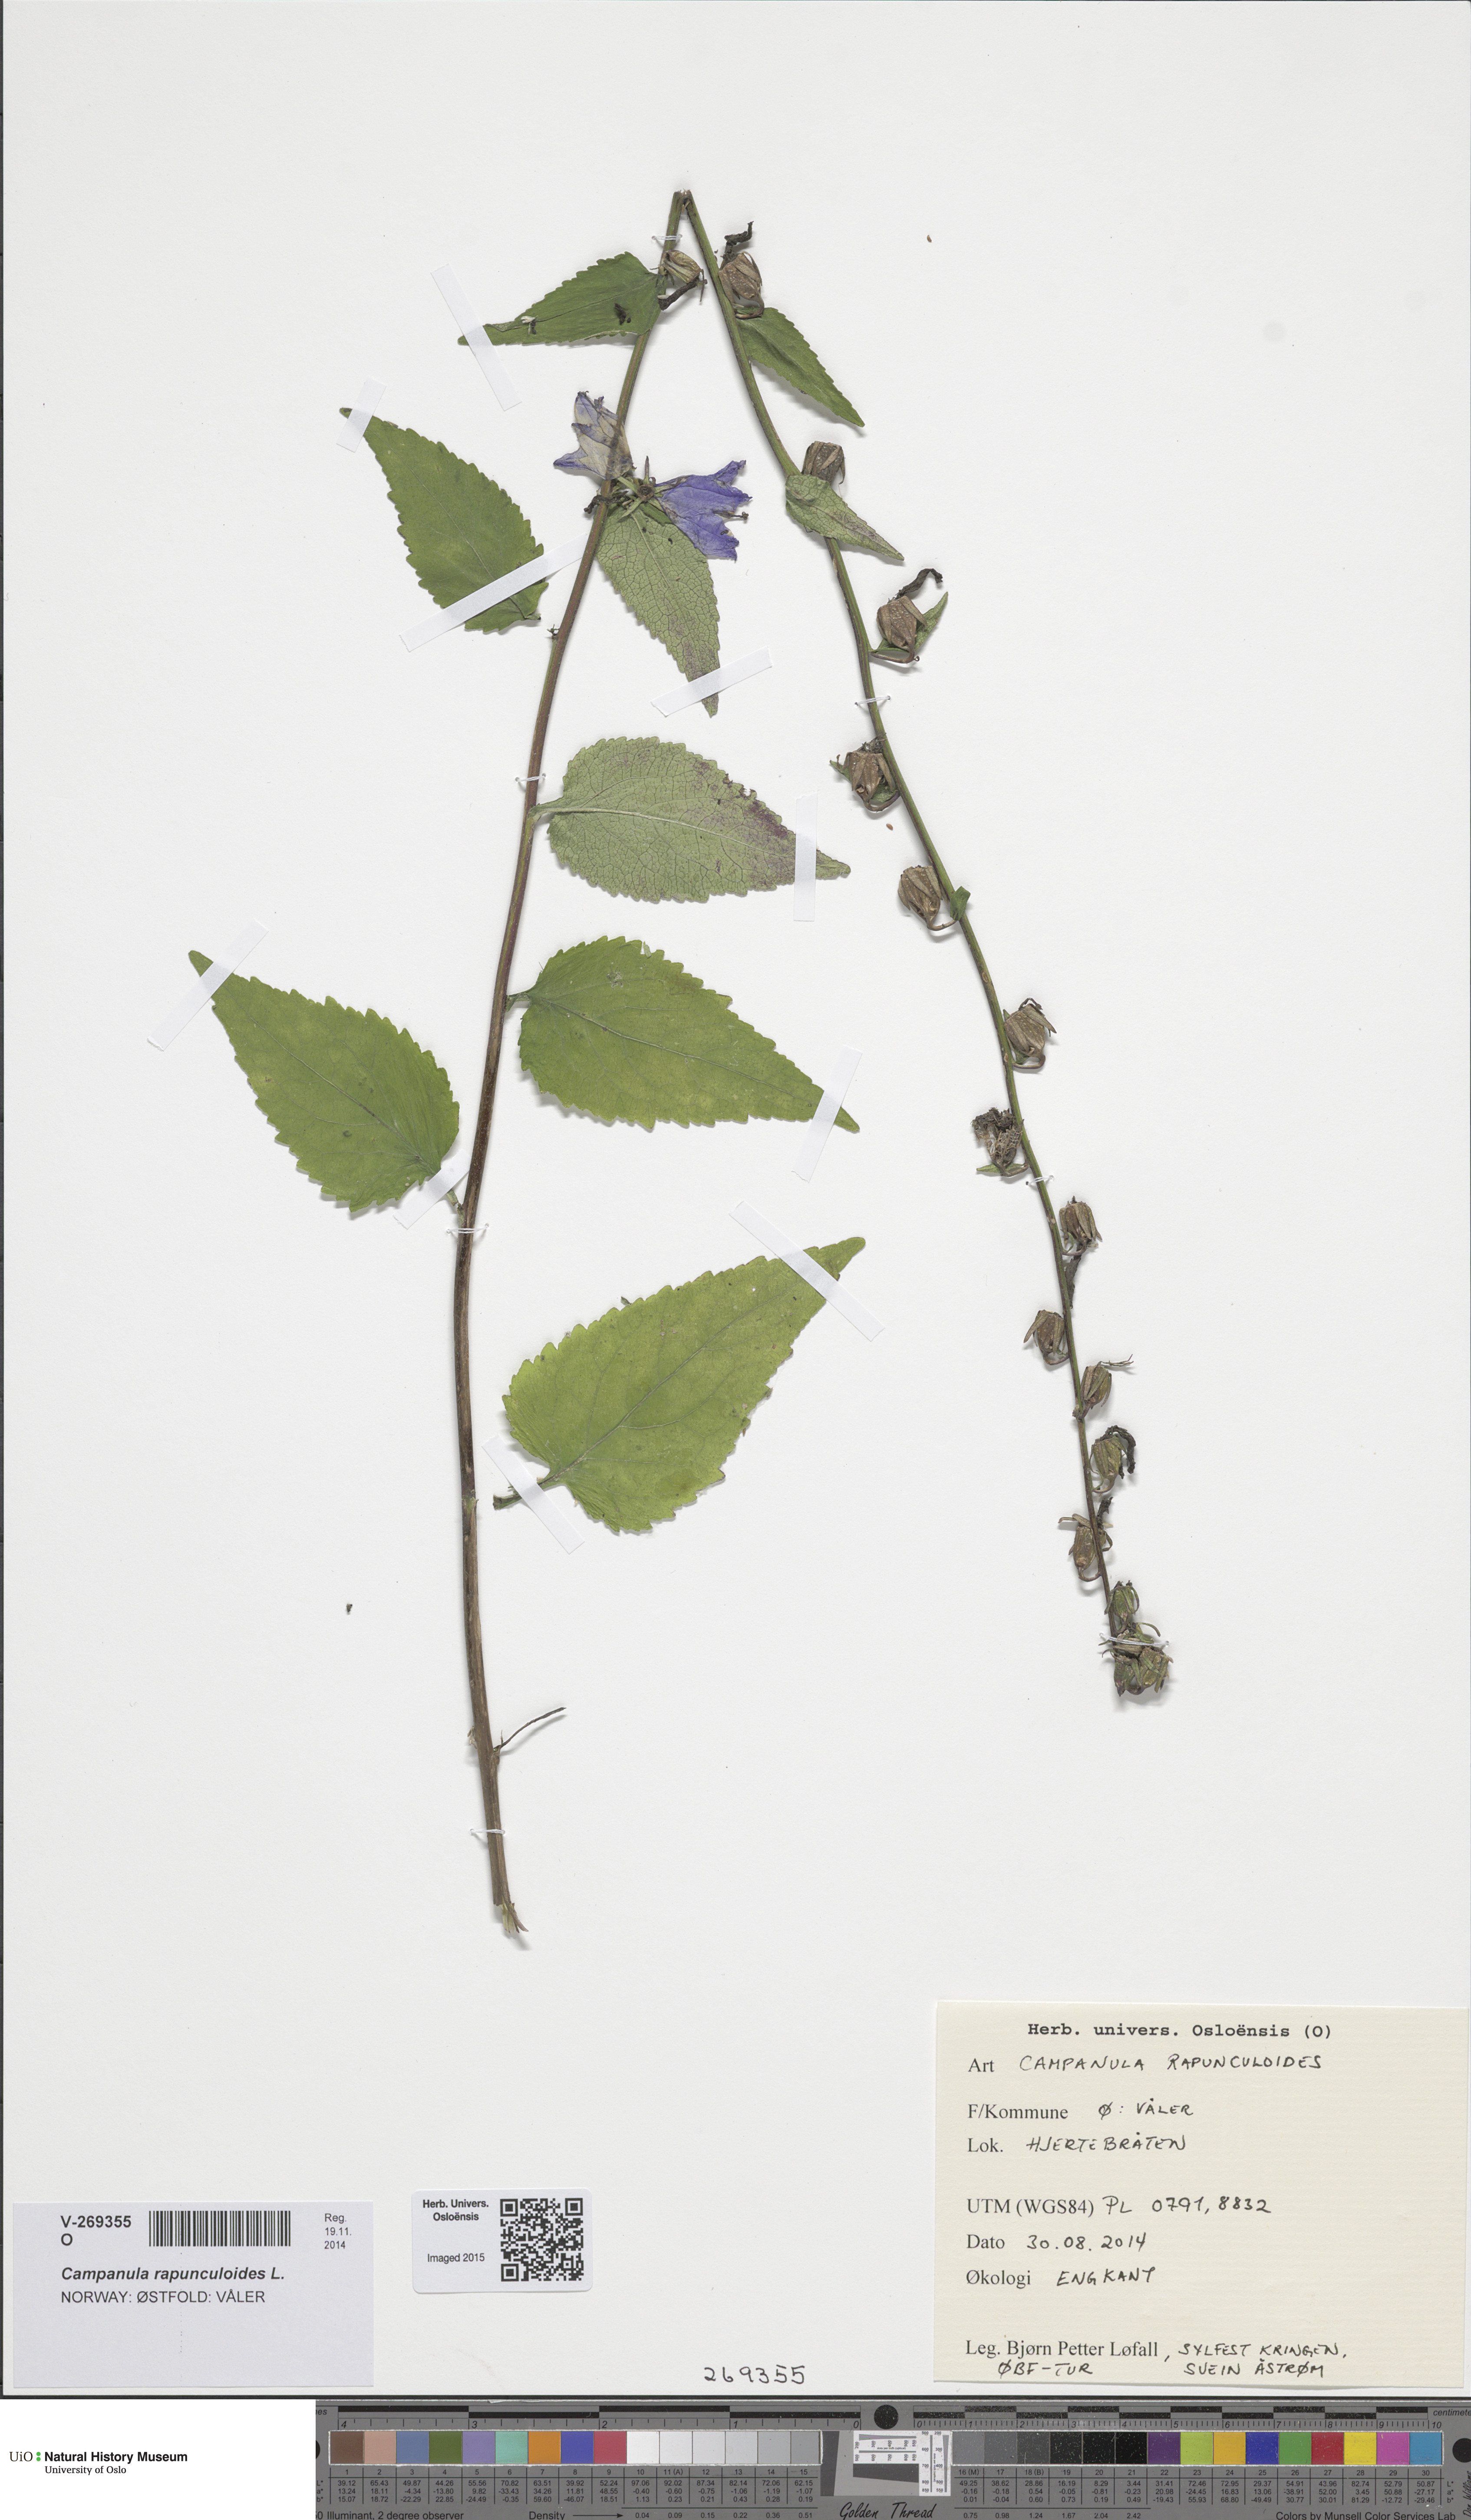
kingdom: Plantae
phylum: Tracheophyta
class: Magnoliopsida
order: Asterales
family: Campanulaceae
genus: Campanula
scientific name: Campanula rapunculoides
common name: Creeping bellflower
